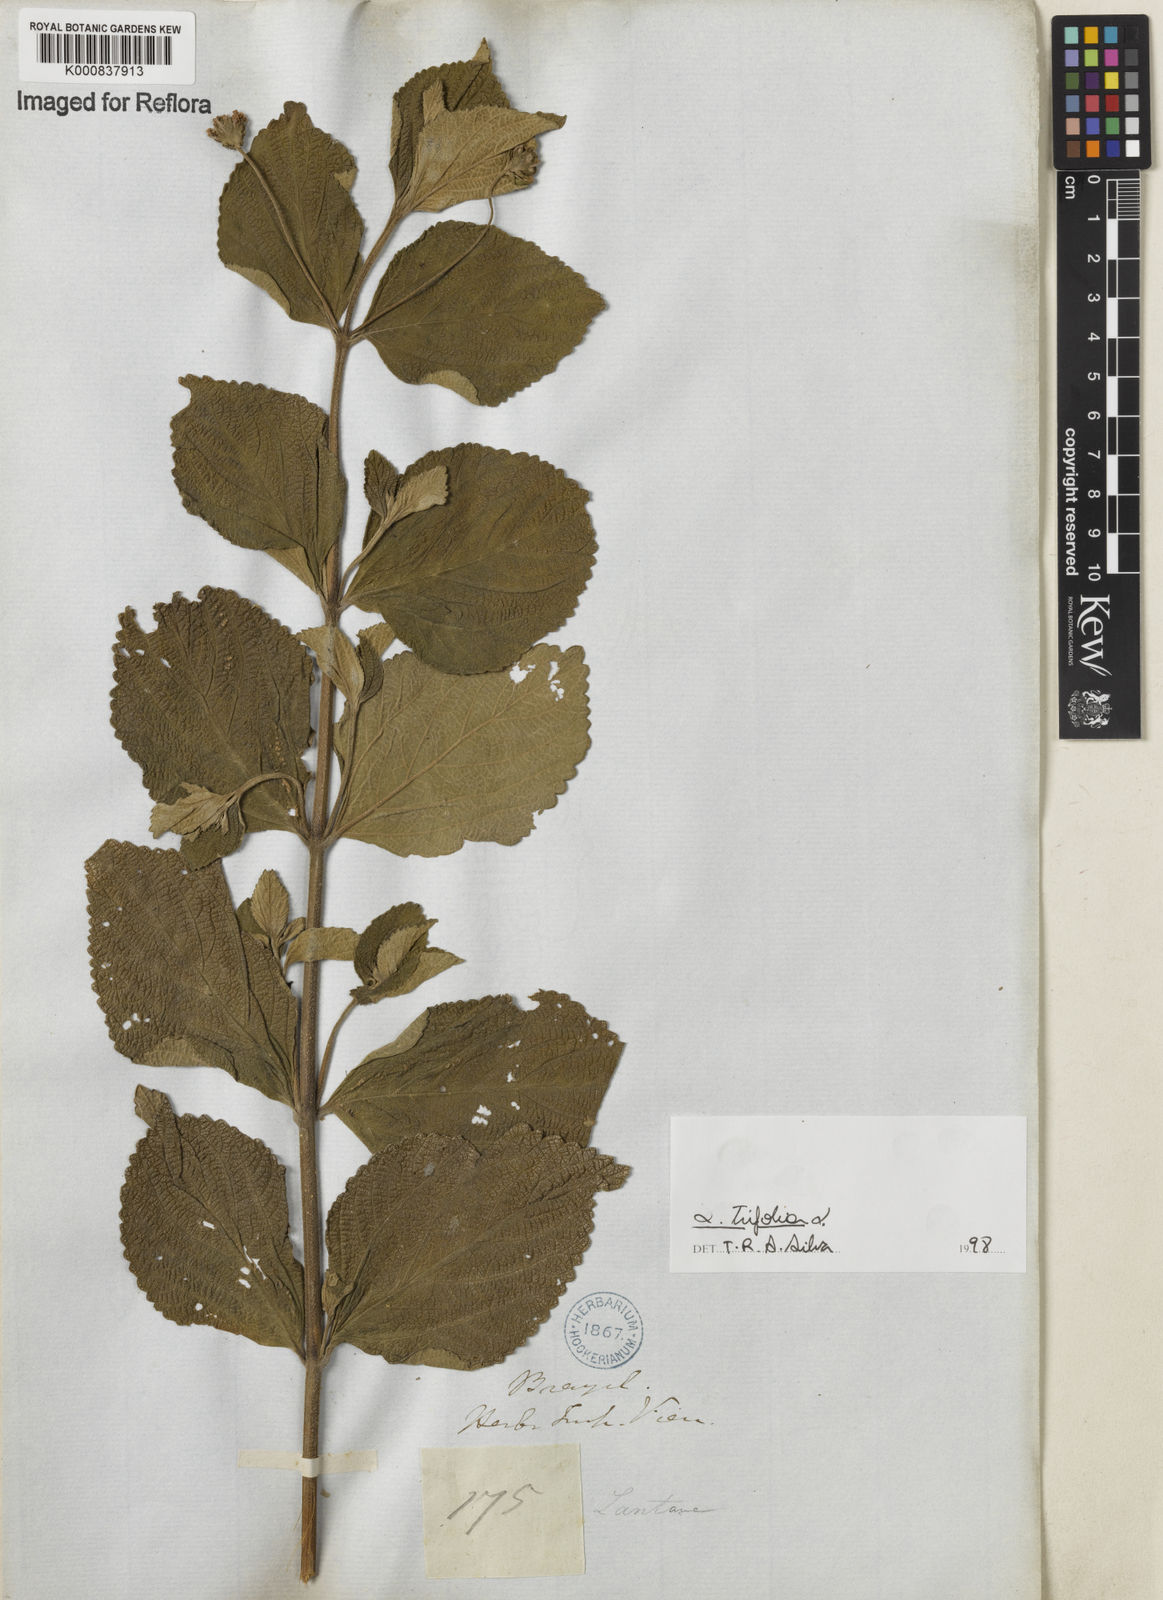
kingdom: Plantae
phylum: Tracheophyta
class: Magnoliopsida
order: Lamiales
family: Verbenaceae
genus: Lantana
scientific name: Lantana trifolia
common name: Sweet-sage
